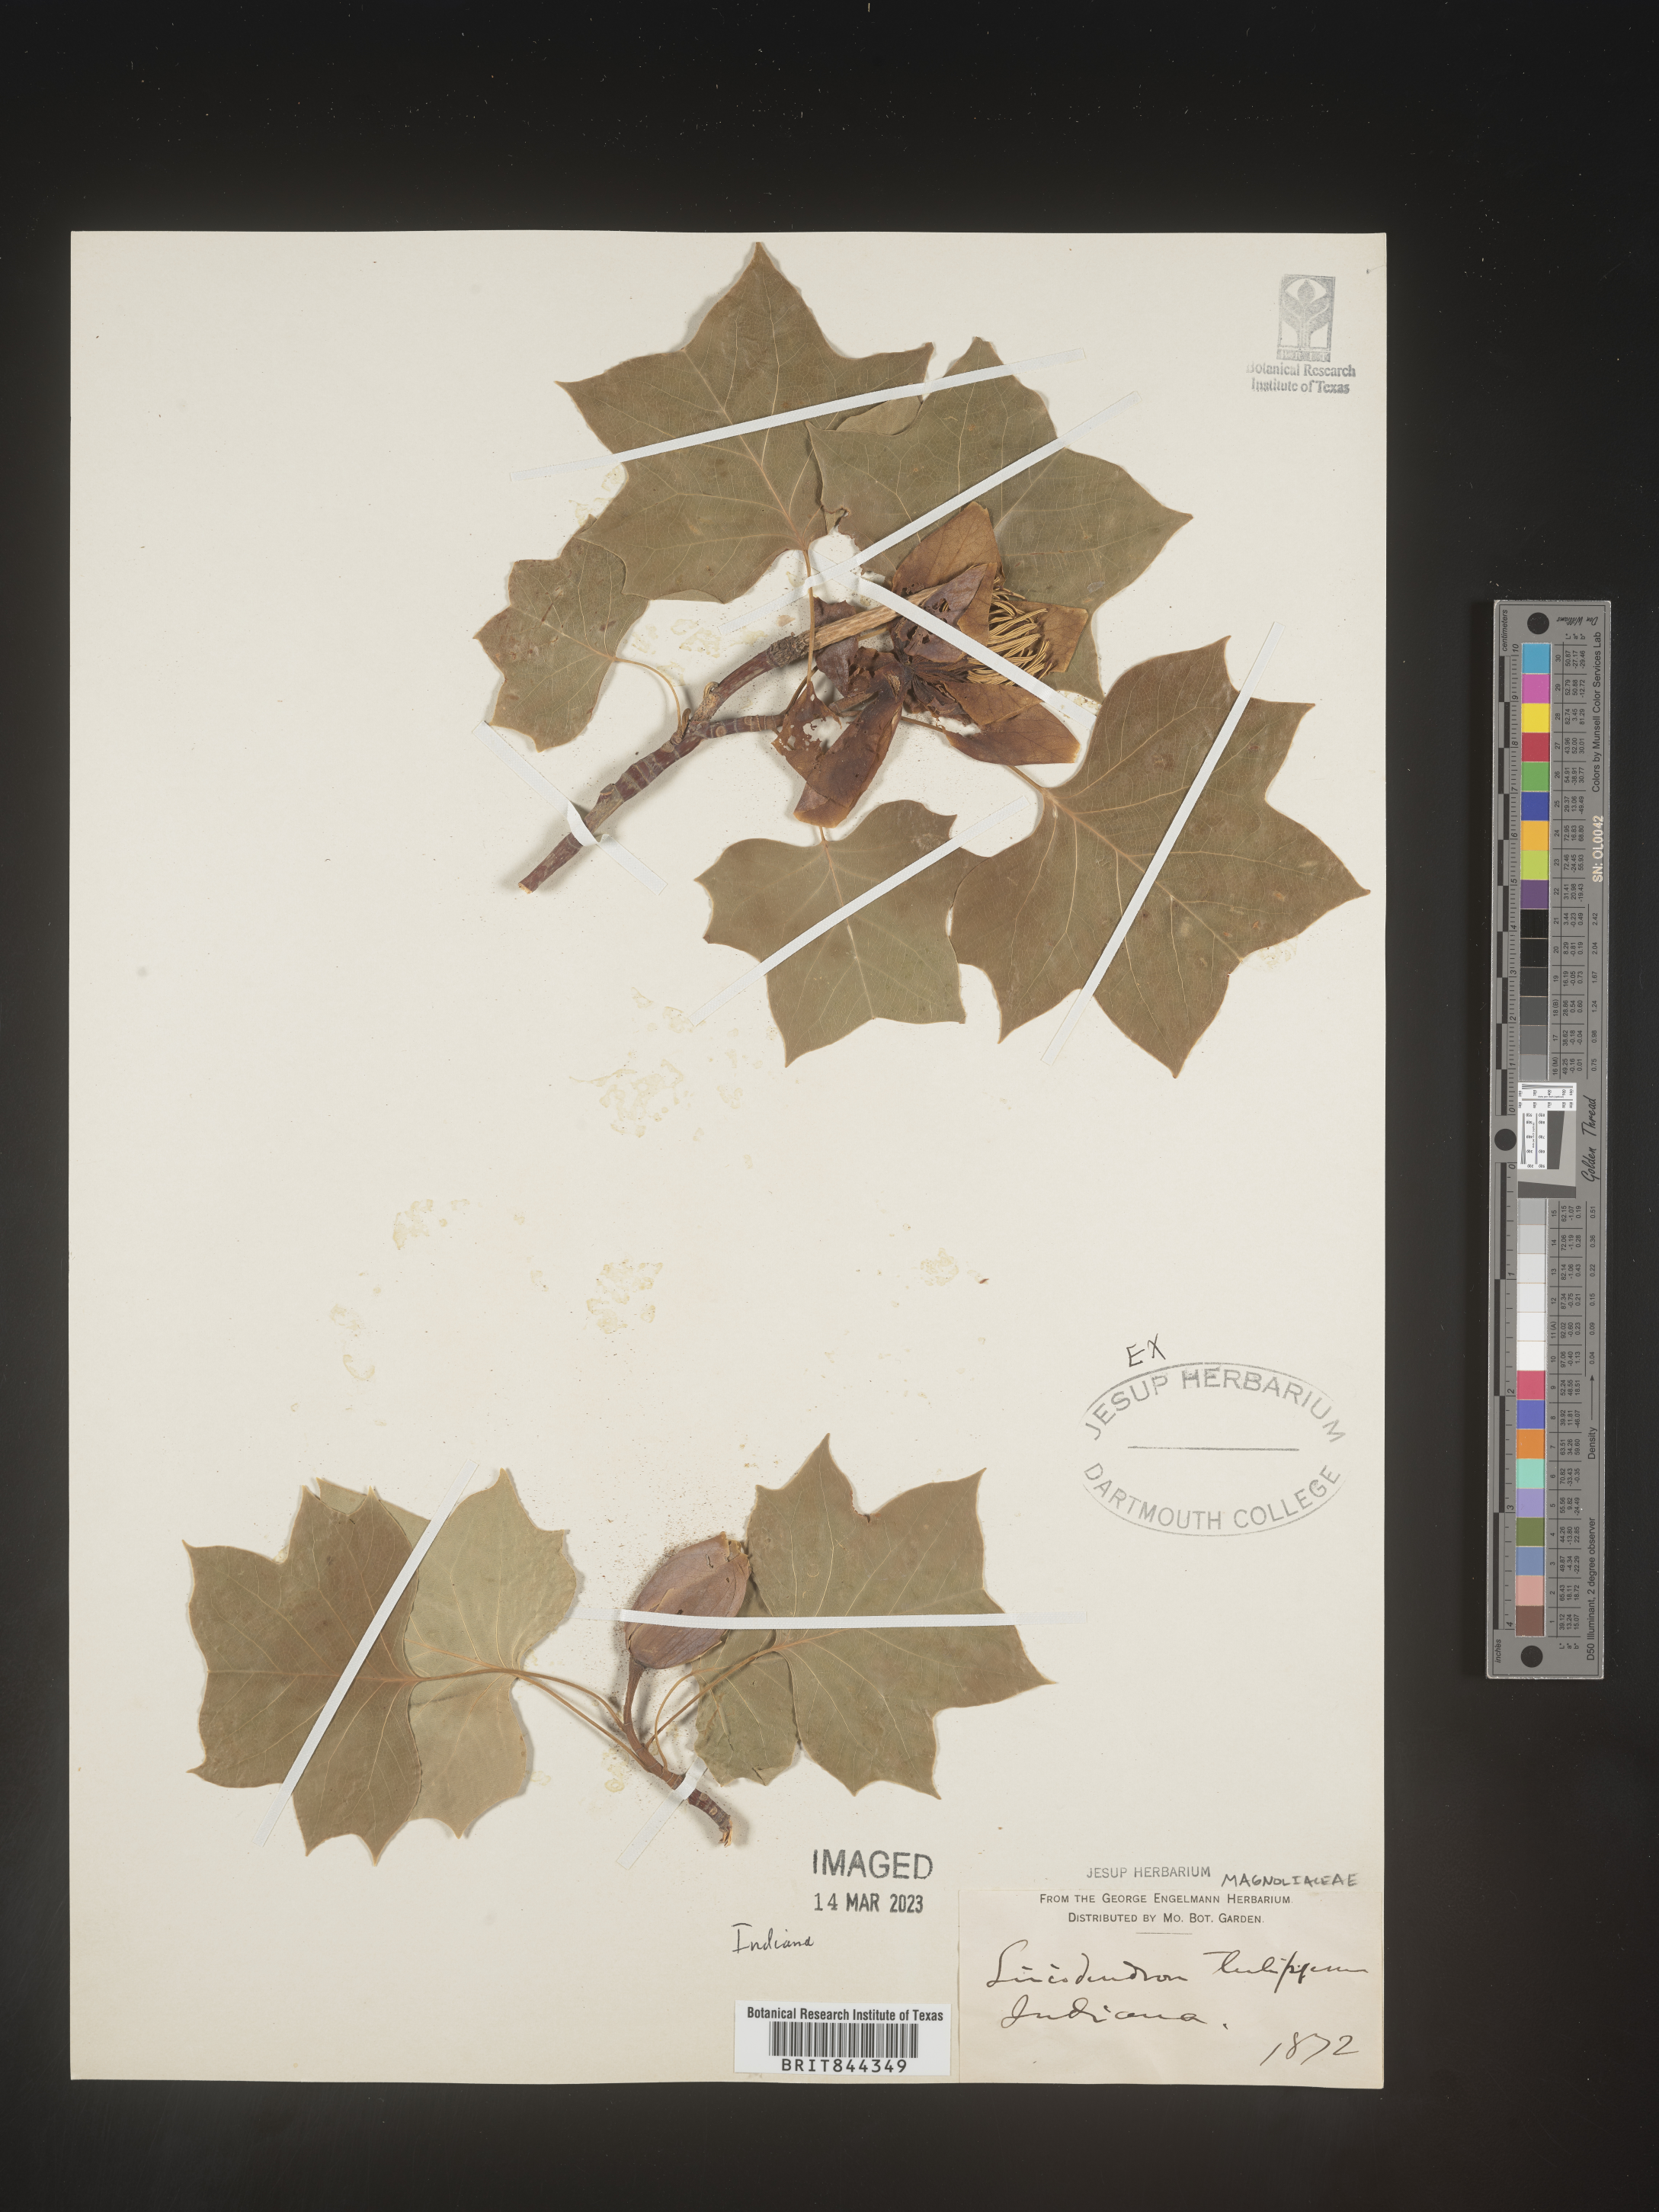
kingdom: Plantae
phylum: Tracheophyta
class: Magnoliopsida
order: Magnoliales
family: Magnoliaceae
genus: Liriodendron
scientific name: Liriodendron tulipifera
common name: Tulip tree
